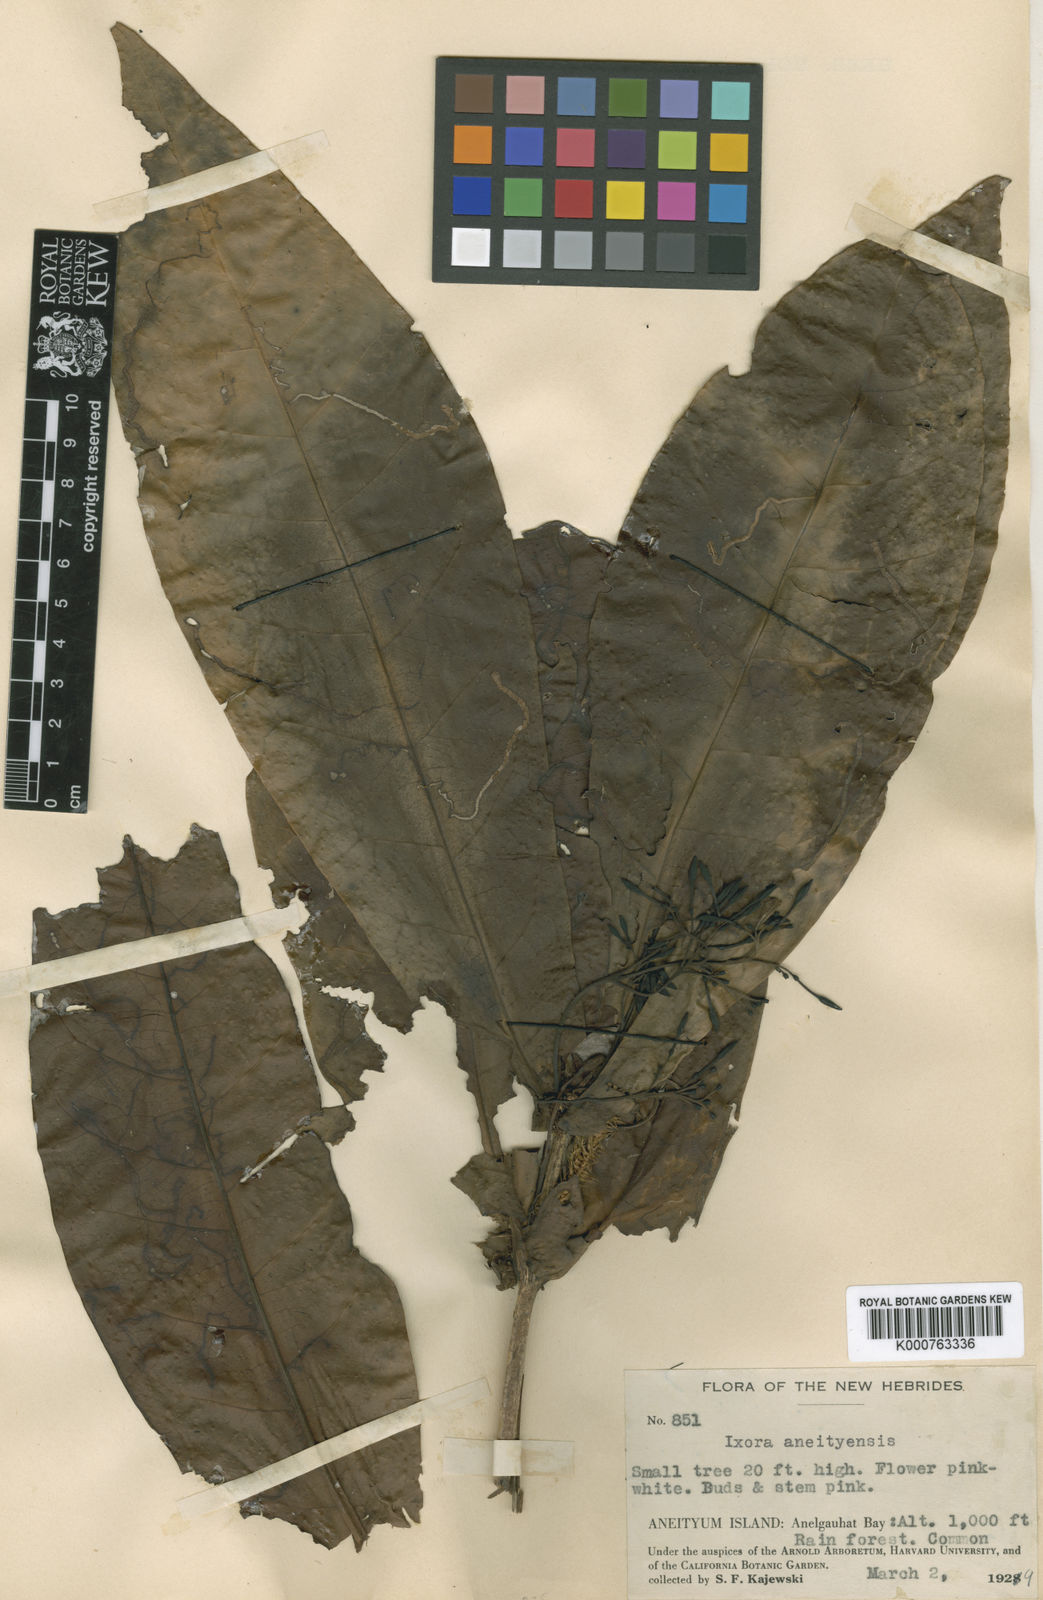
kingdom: Plantae
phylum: Tracheophyta
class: Magnoliopsida
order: Gentianales
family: Rubiaceae
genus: Ixora
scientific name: Ixora aneityensis
